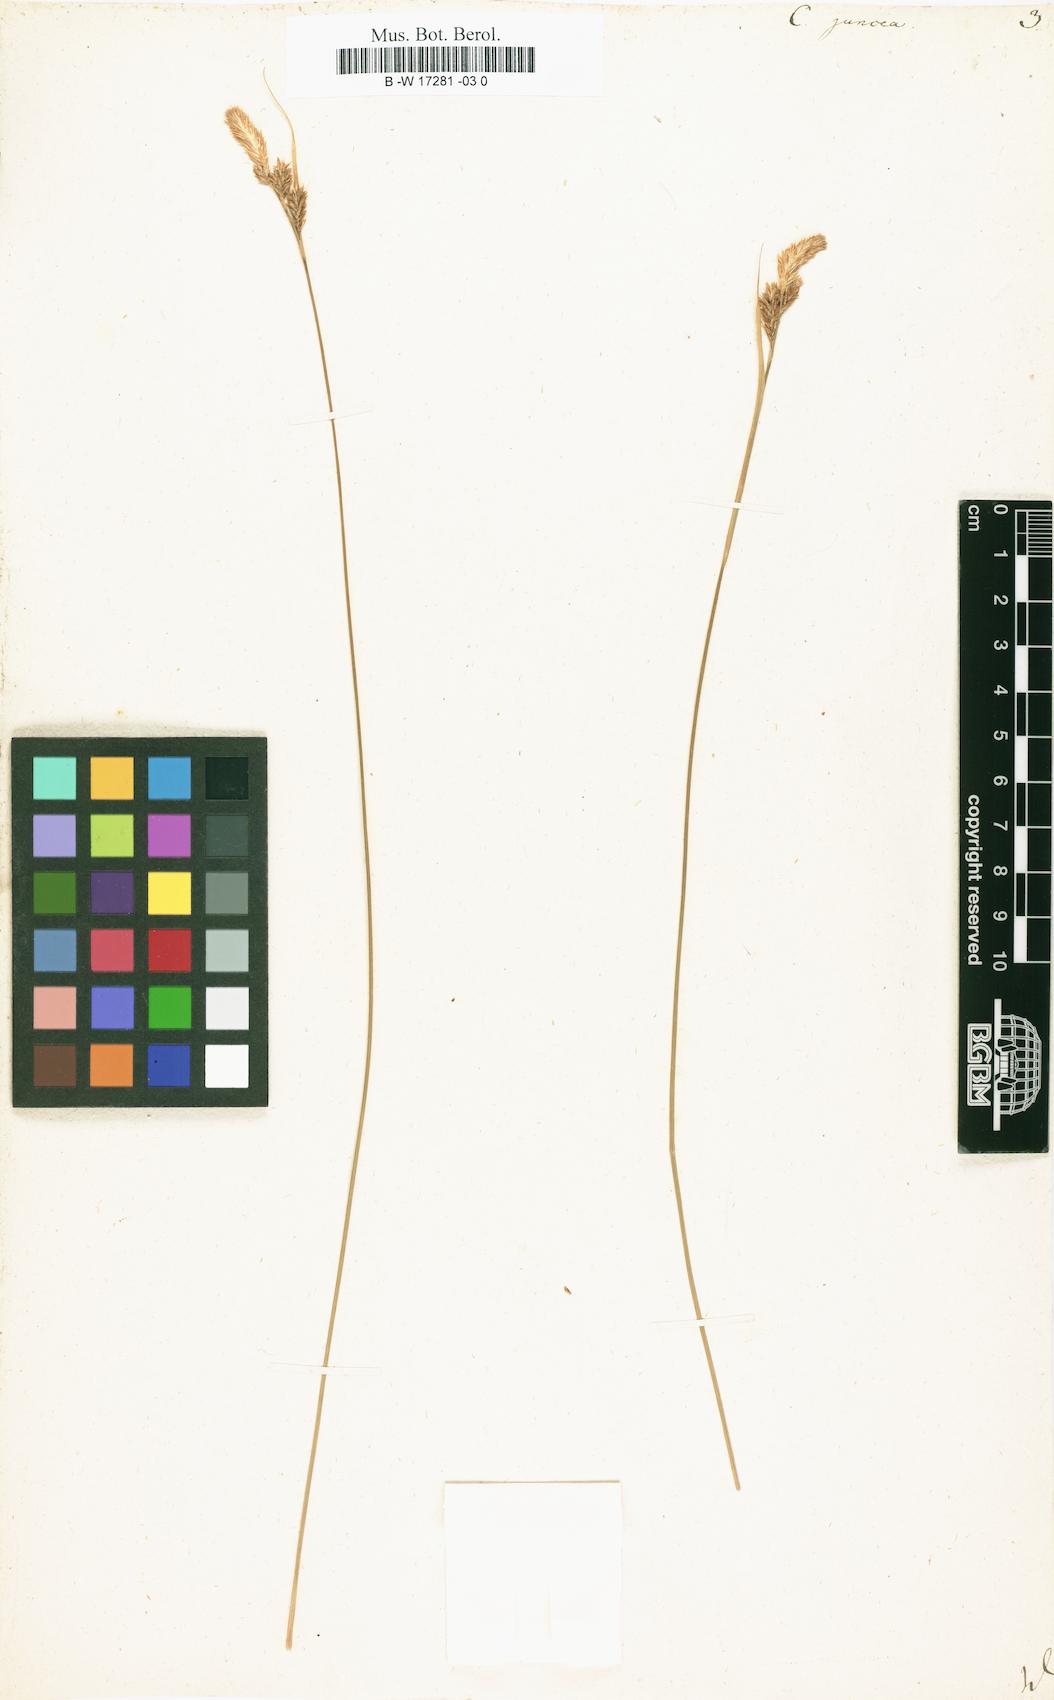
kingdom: Plantae
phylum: Tracheophyta
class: Liliopsida
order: Poales
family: Cyperaceae
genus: Carex
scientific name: Carex misera
